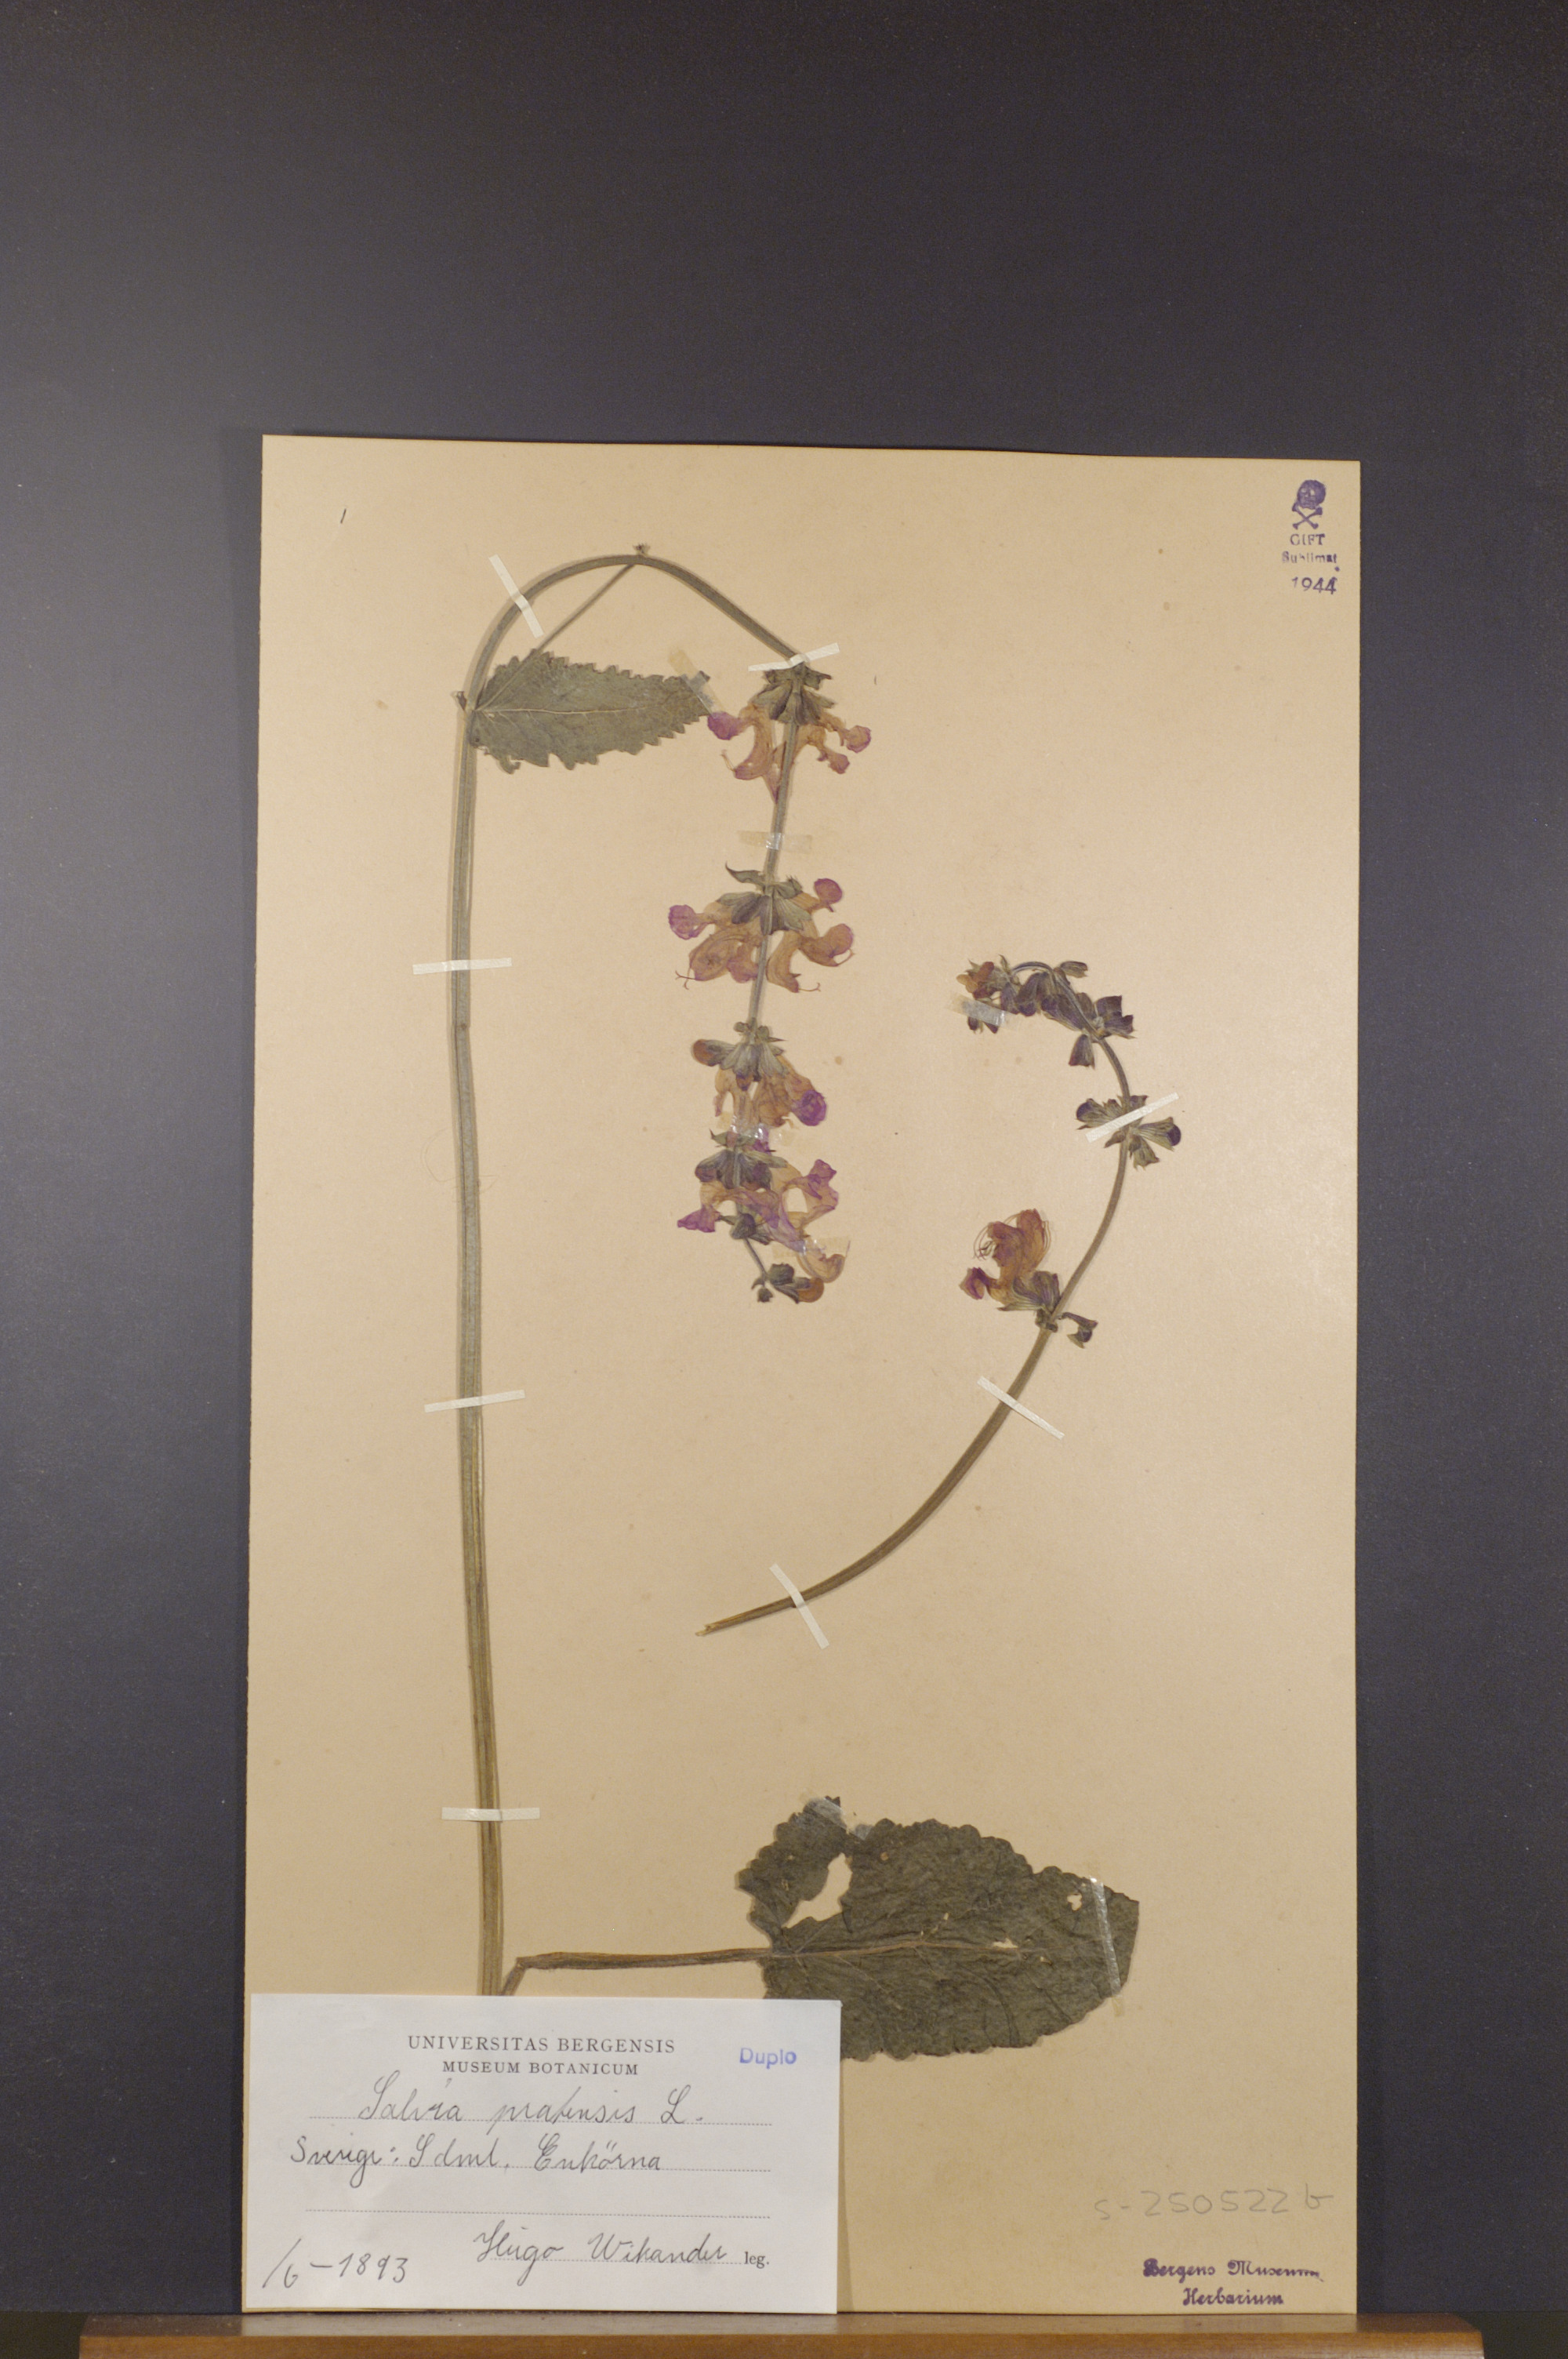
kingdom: Plantae
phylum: Tracheophyta
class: Magnoliopsida
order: Lamiales
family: Lamiaceae
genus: Salvia
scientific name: Salvia pratensis
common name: Meadow sage
